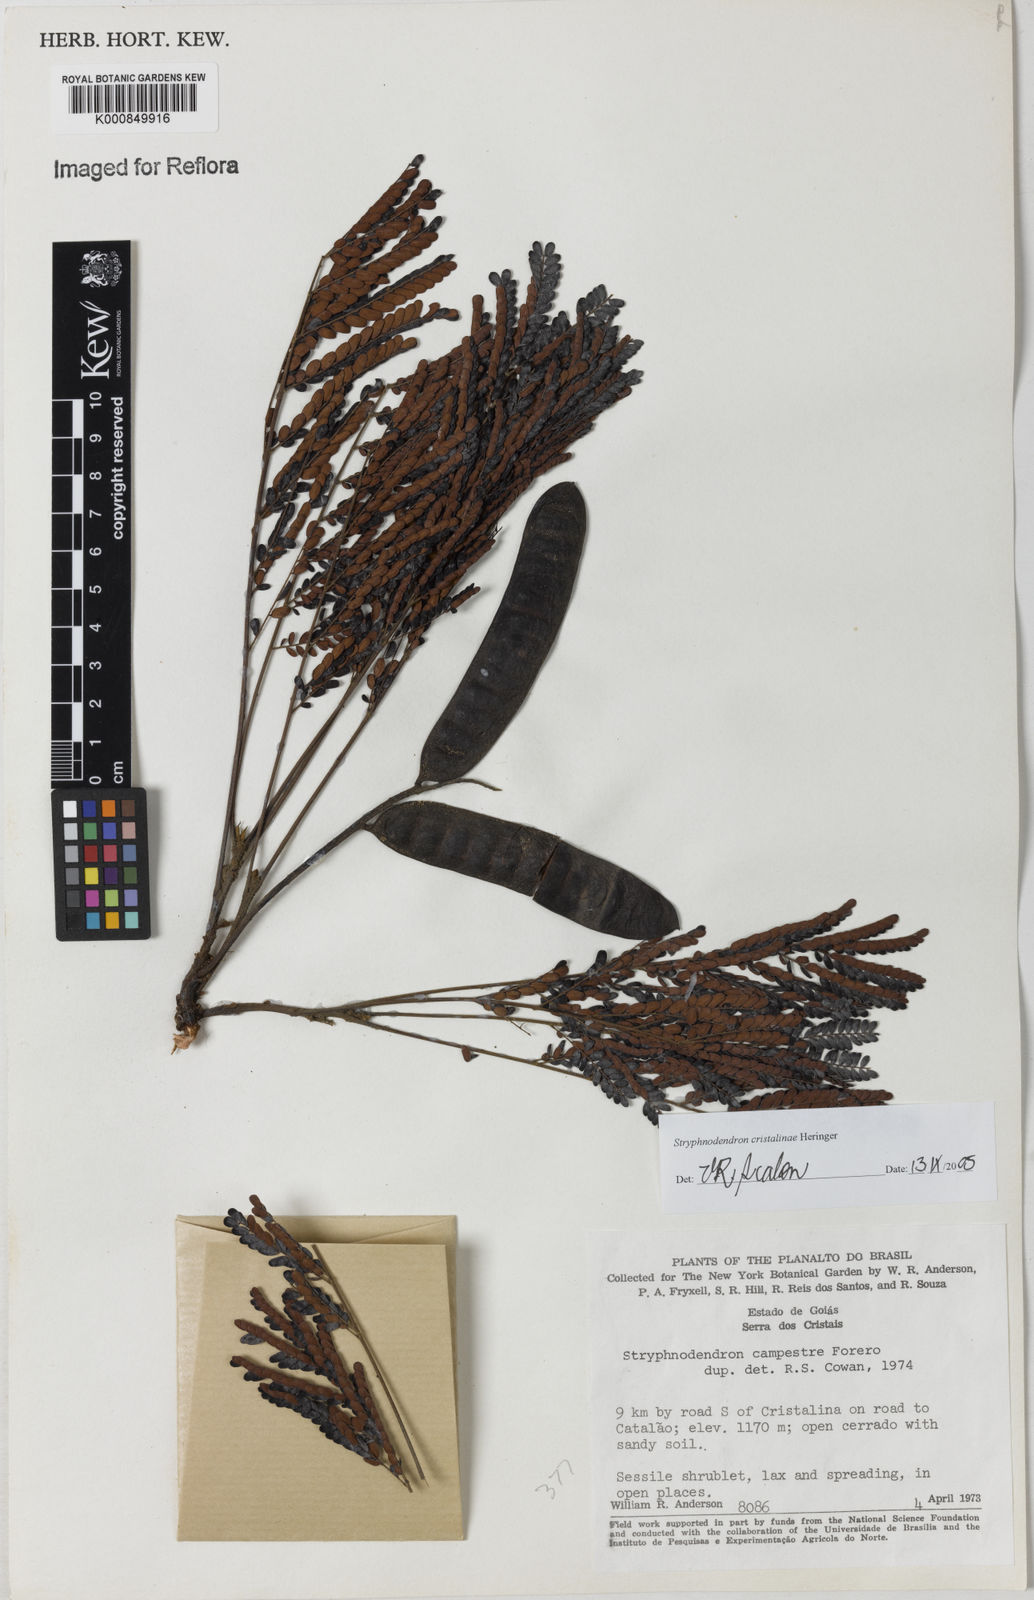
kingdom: Plantae
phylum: Tracheophyta
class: Magnoliopsida
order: Fabales
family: Fabaceae
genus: Stryphnodendron
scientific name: Stryphnodendron cristalinae
